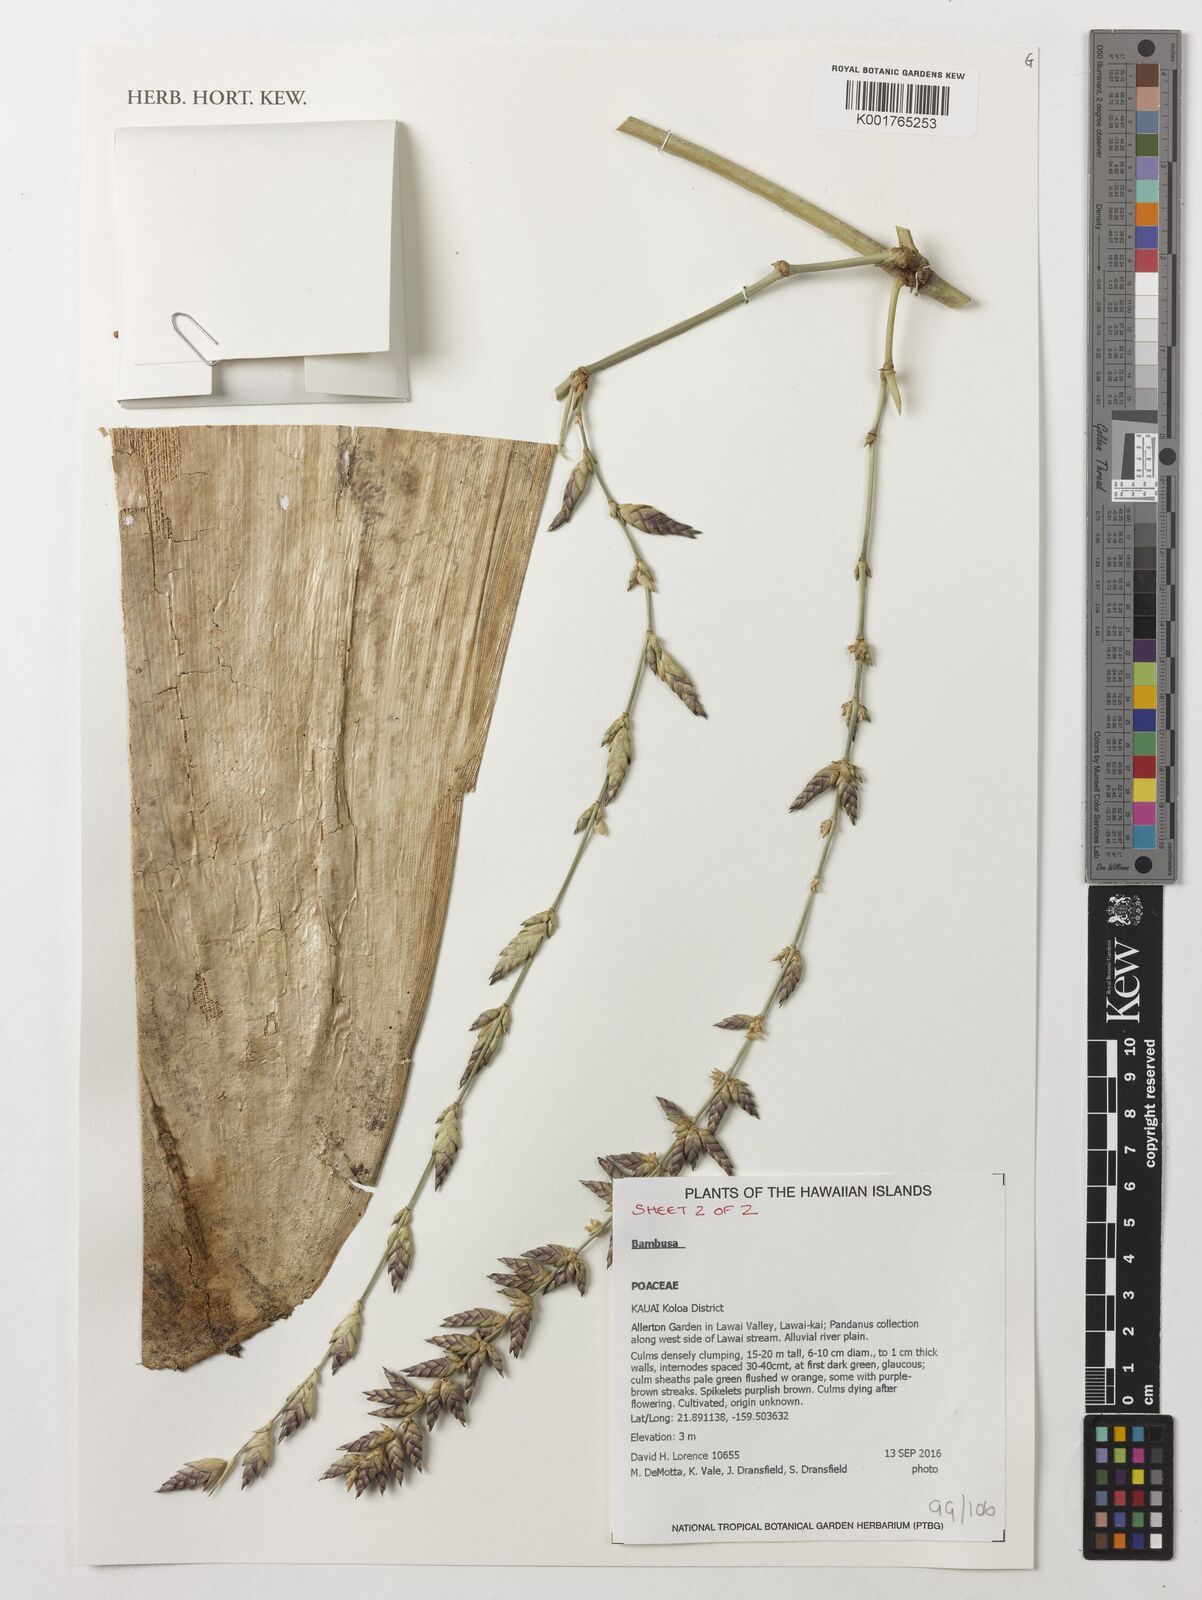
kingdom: Plantae
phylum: Tracheophyta
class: Liliopsida
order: Poales
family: Poaceae
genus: Bambusa
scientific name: Bambusa
